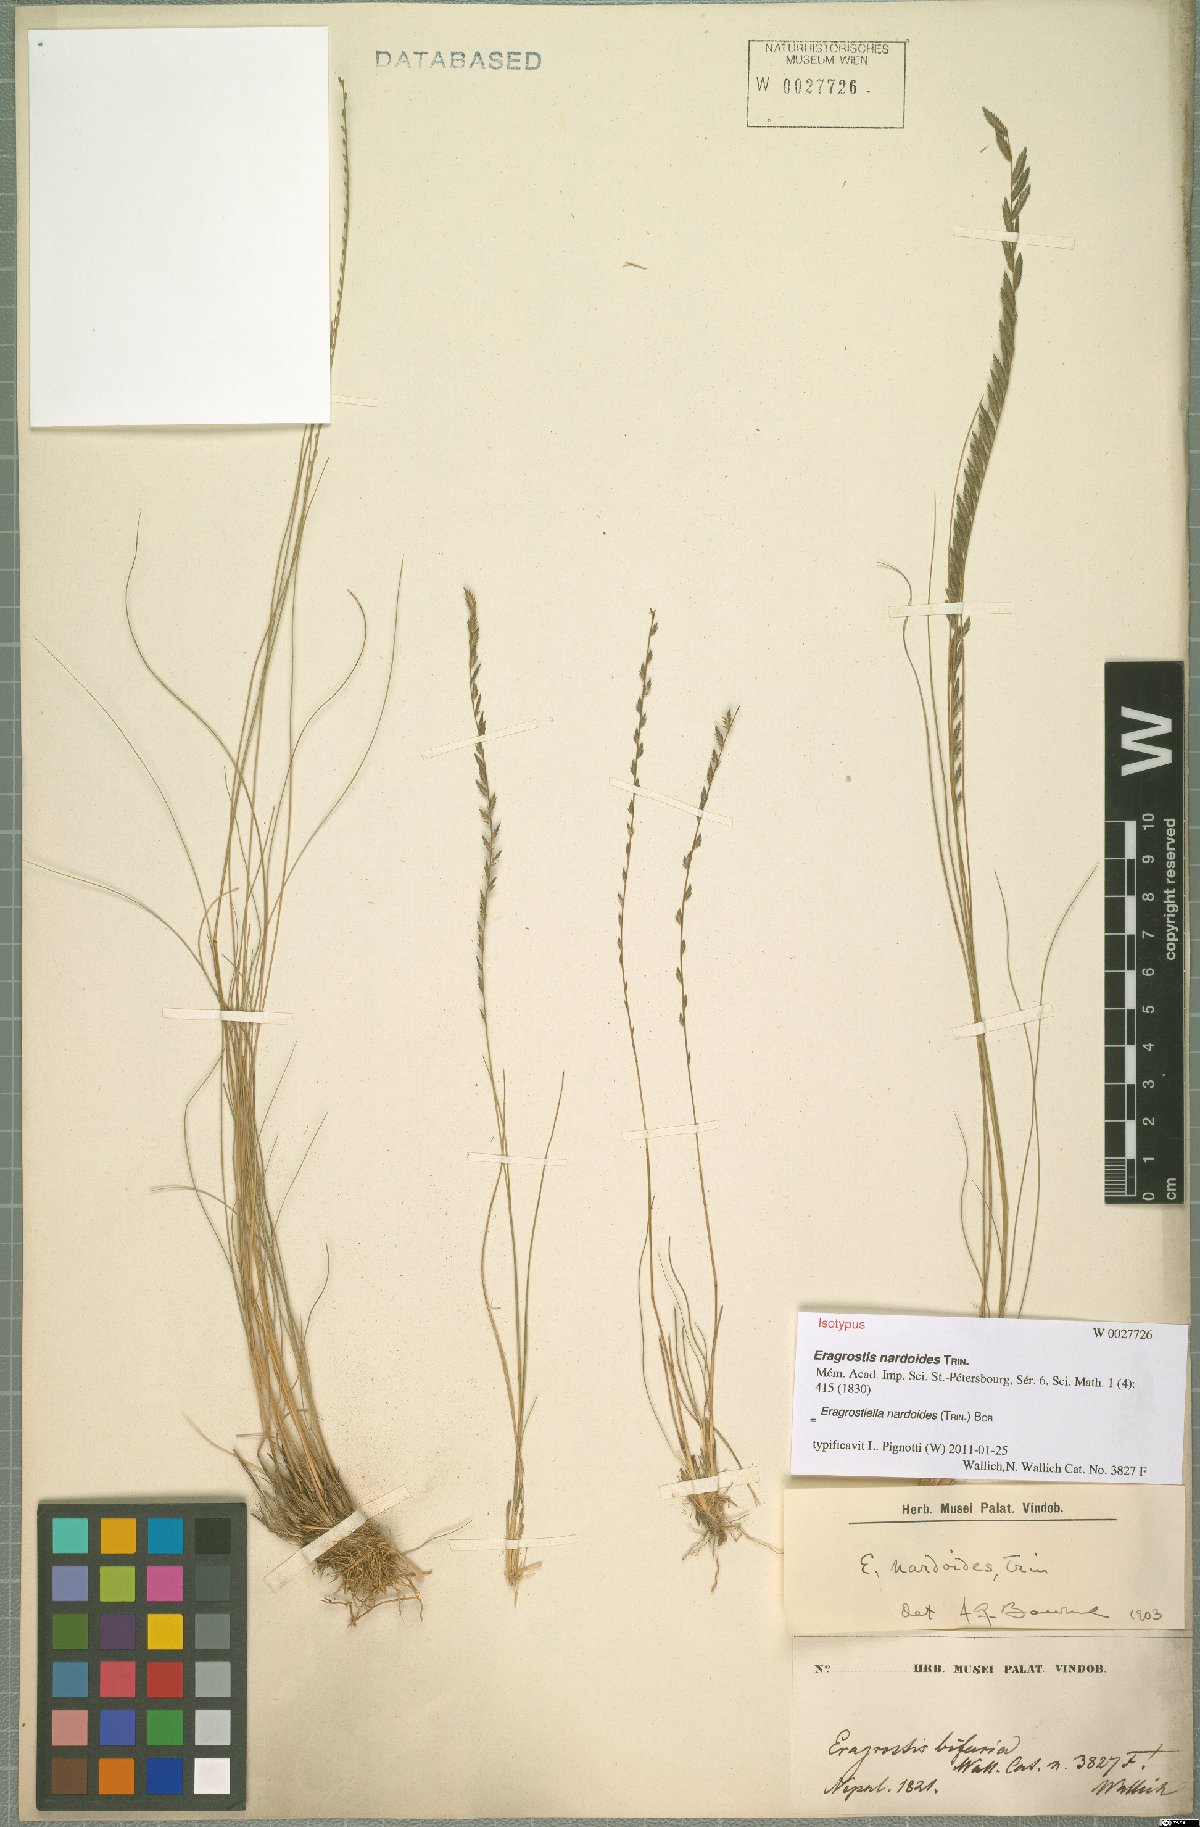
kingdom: Plantae
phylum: Tracheophyta
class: Liliopsida
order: Poales
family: Poaceae
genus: Eragrostiella
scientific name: Eragrostiella nardoides
